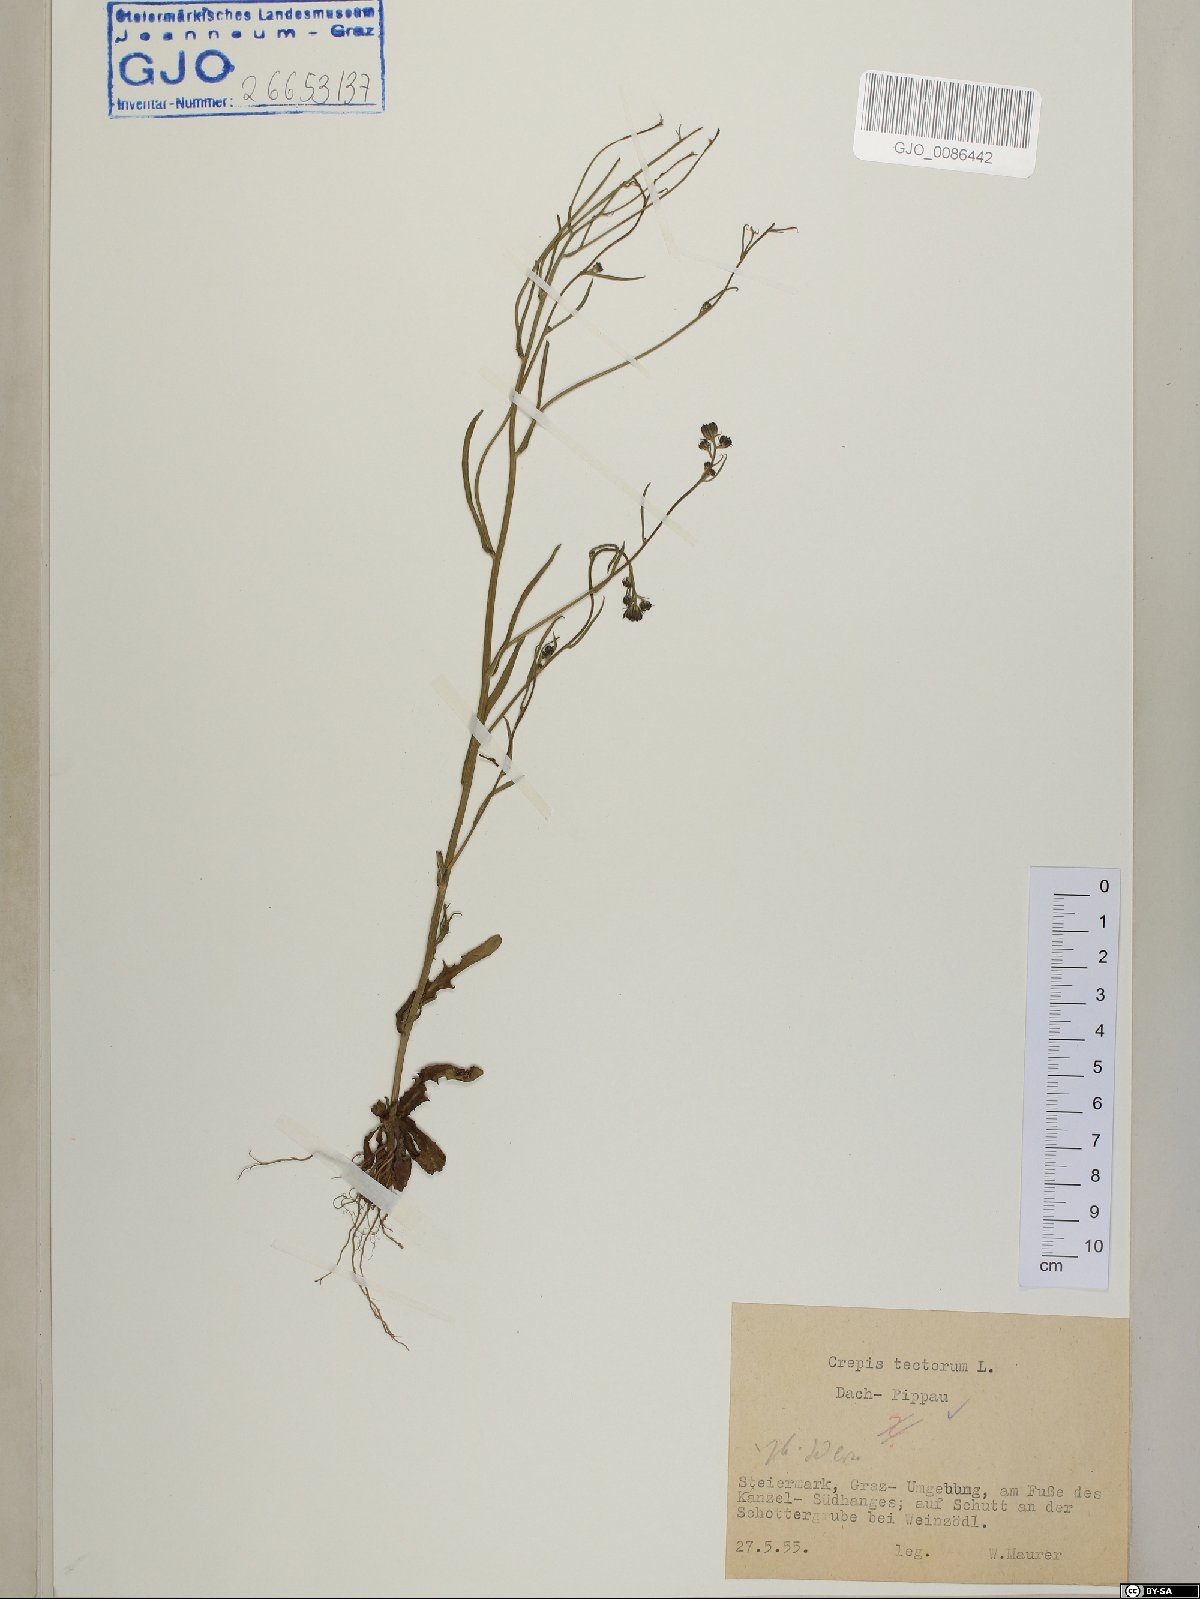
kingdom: Plantae
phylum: Tracheophyta
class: Magnoliopsida
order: Asterales
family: Asteraceae
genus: Crepis
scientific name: Crepis tectorum
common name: Narrow-leaved hawk's-beard
